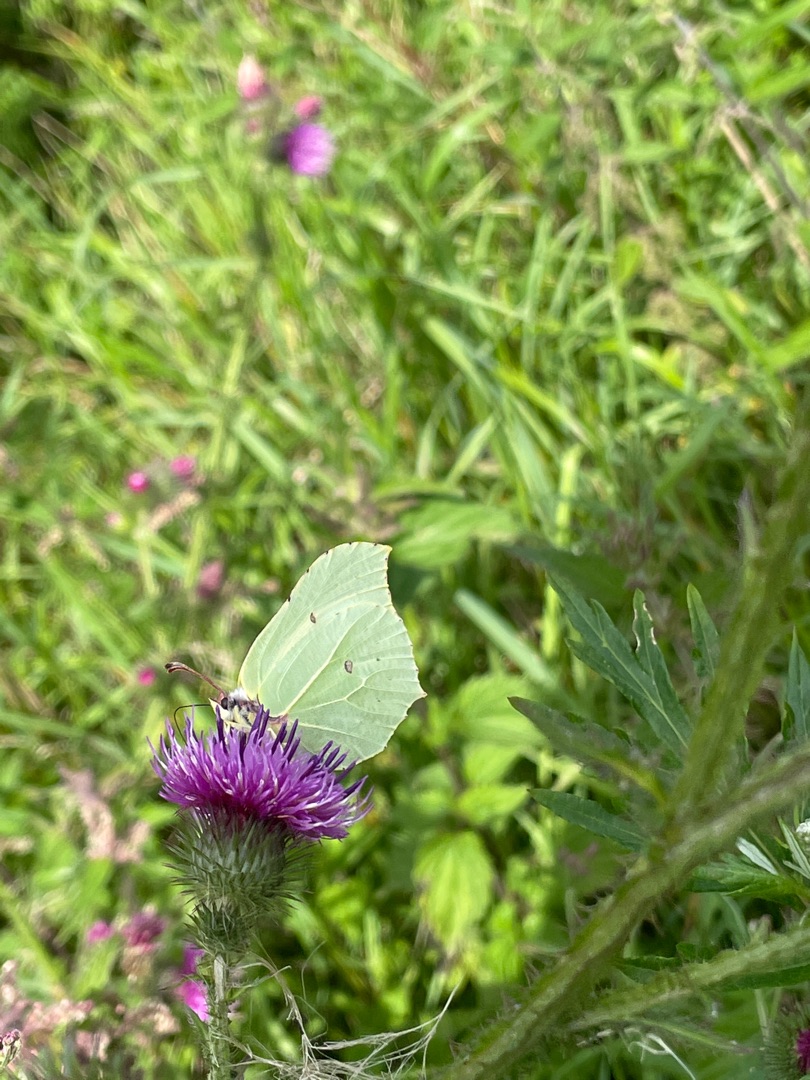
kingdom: Animalia
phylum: Arthropoda
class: Insecta
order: Lepidoptera
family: Pieridae
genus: Gonepteryx
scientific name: Gonepteryx rhamni
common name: Citronsommerfugl
